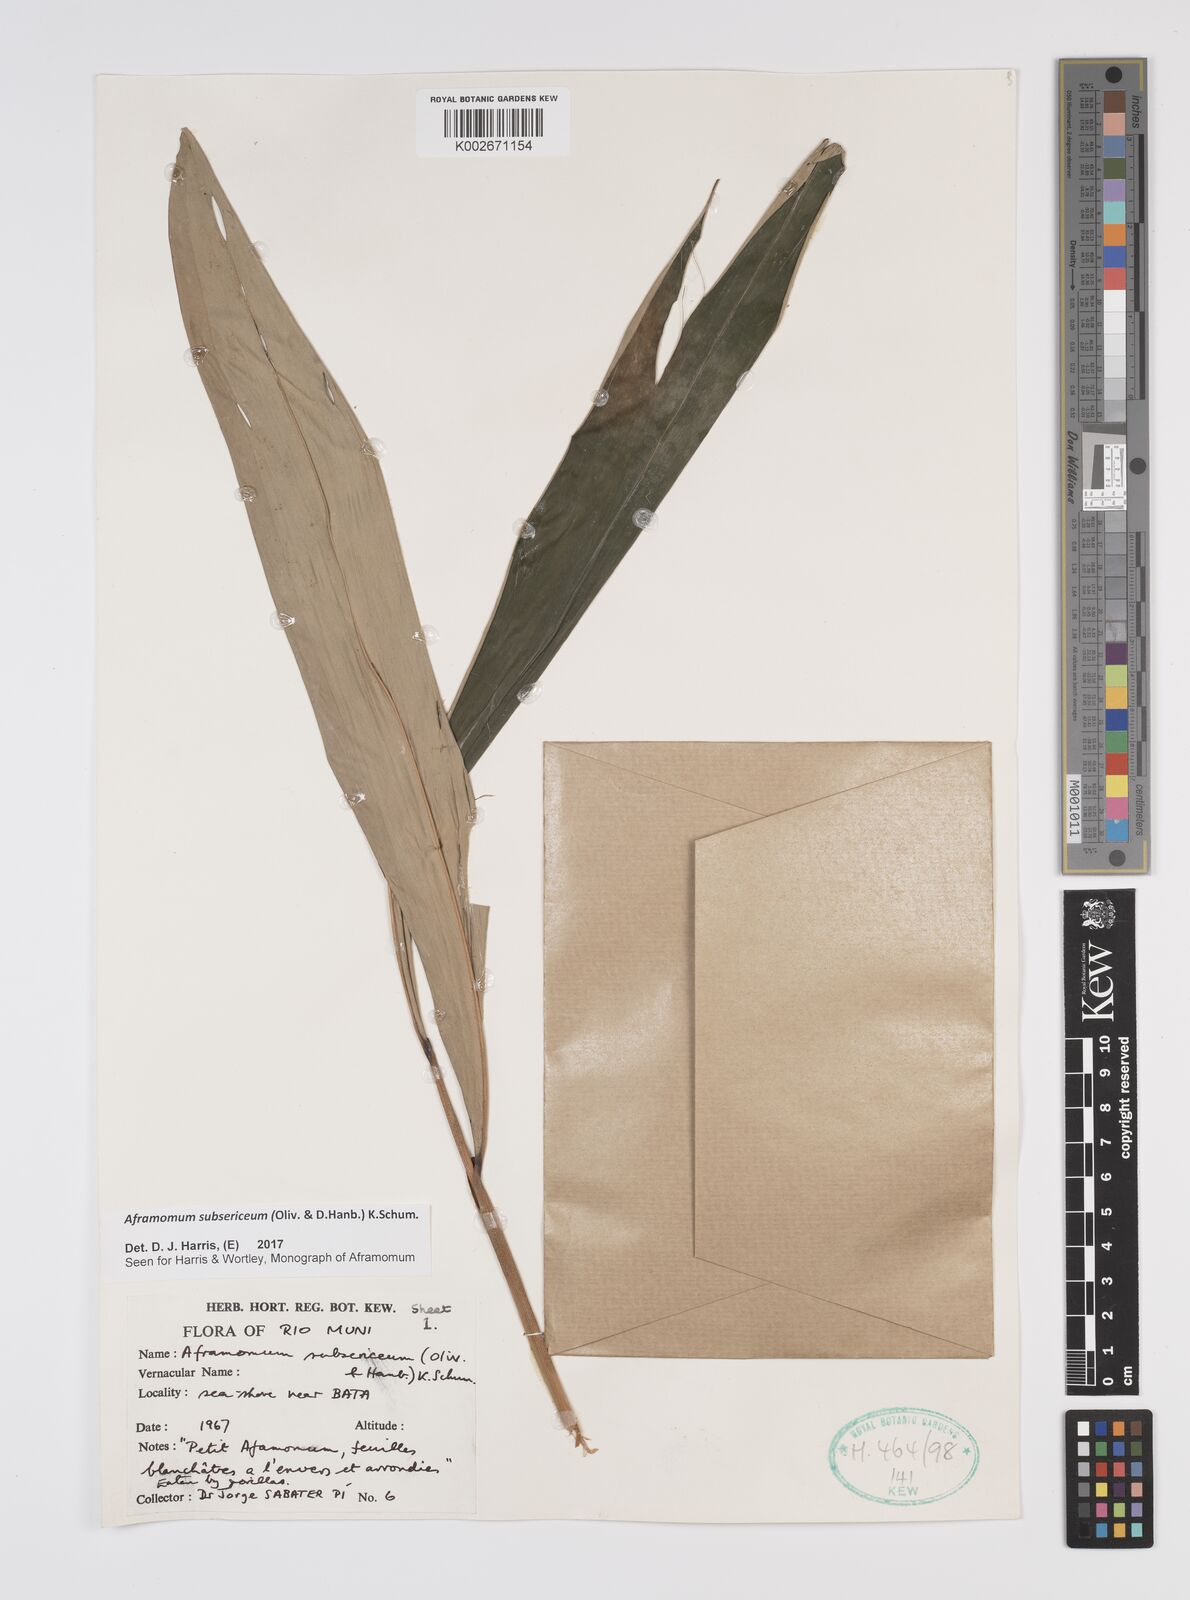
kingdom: Plantae
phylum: Tracheophyta
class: Liliopsida
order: Zingiberales
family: Zingiberaceae
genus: Aframomum
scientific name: Aframomum subsericeum
